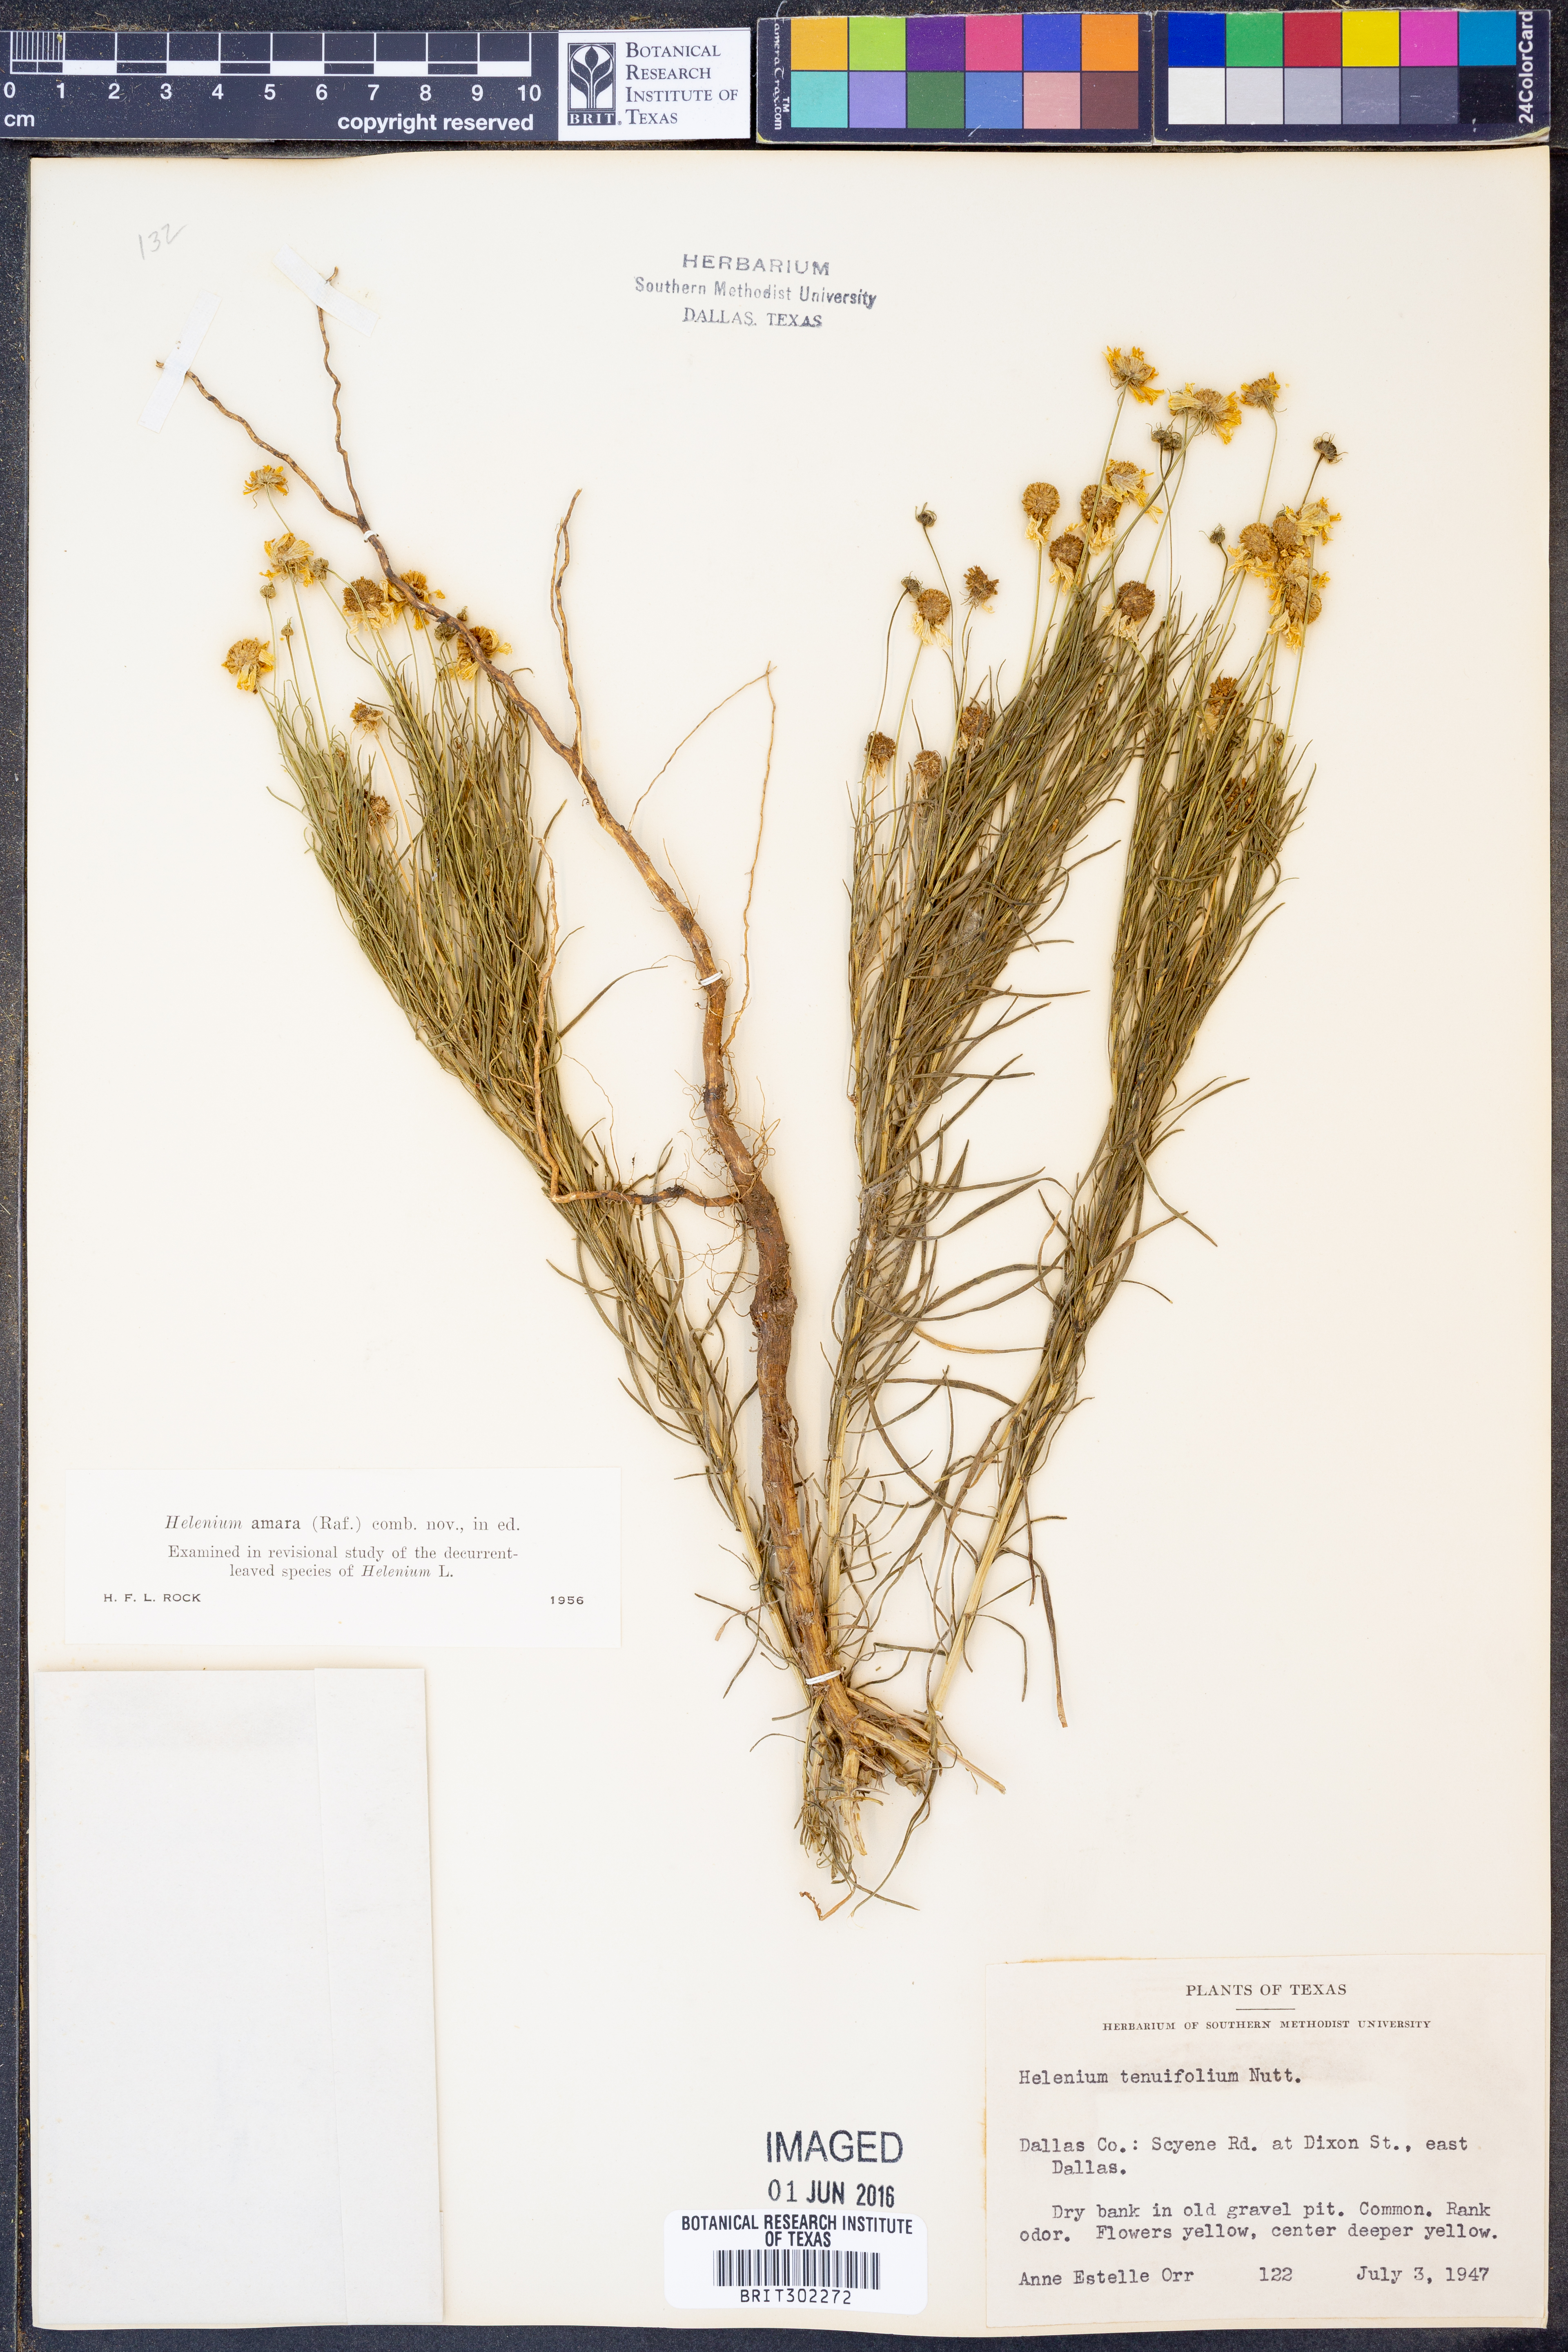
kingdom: Plantae
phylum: Tracheophyta
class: Magnoliopsida
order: Asterales
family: Asteraceae
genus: Helenium
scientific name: Helenium amarum
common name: Bitter sneezeweed
